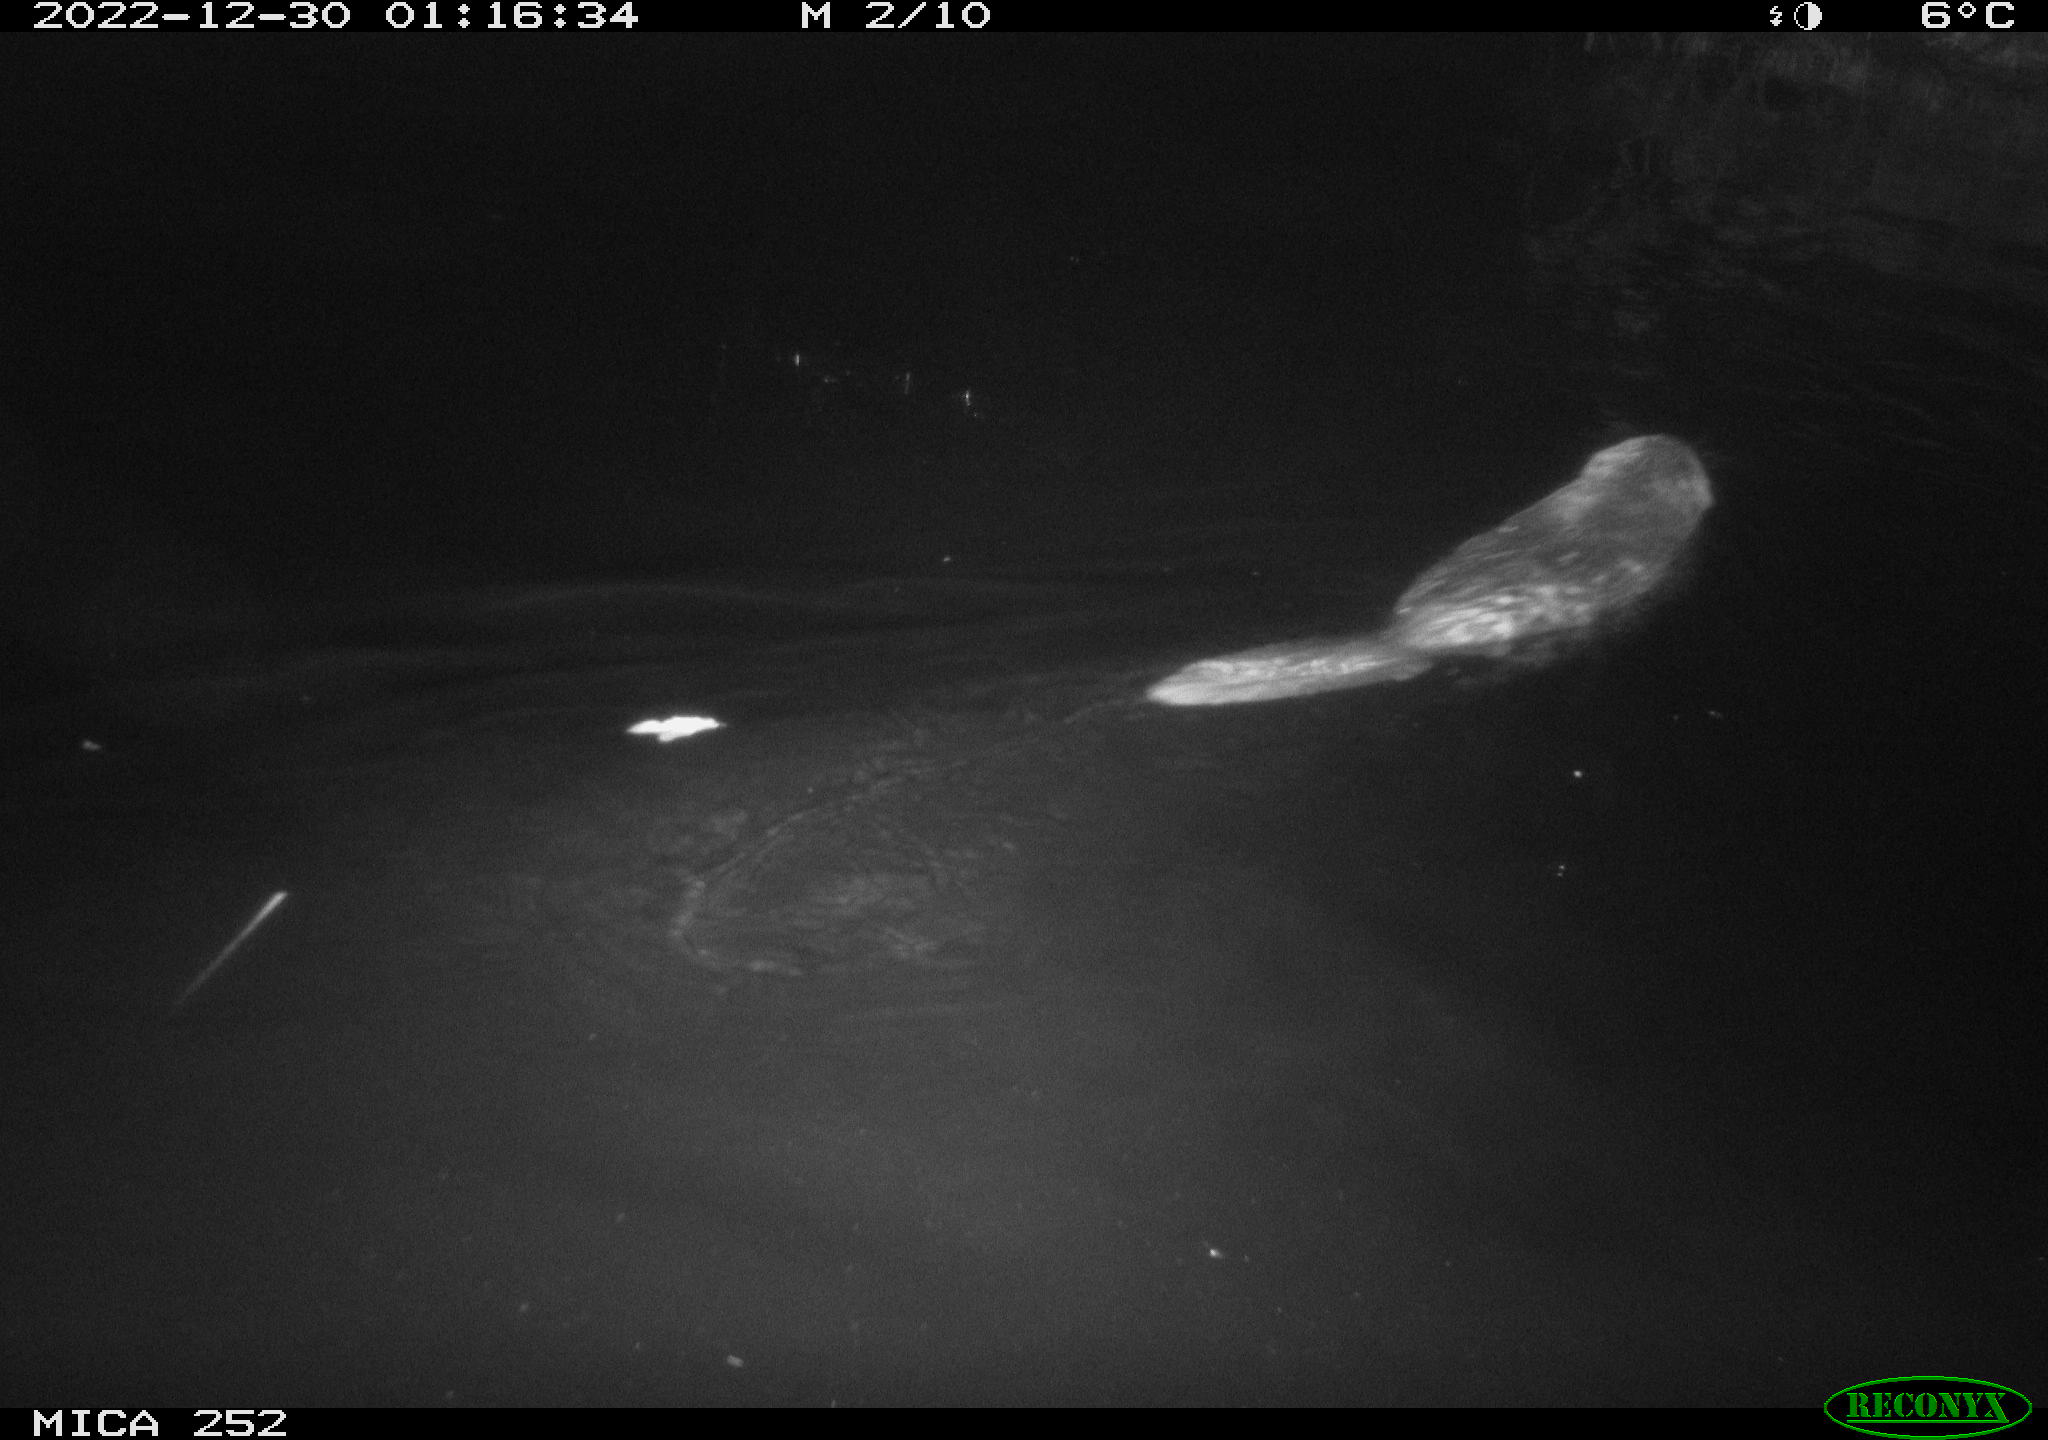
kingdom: Animalia
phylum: Chordata
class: Mammalia
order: Rodentia
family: Castoridae
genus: Castor
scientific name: Castor fiber
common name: Eurasian beaver
